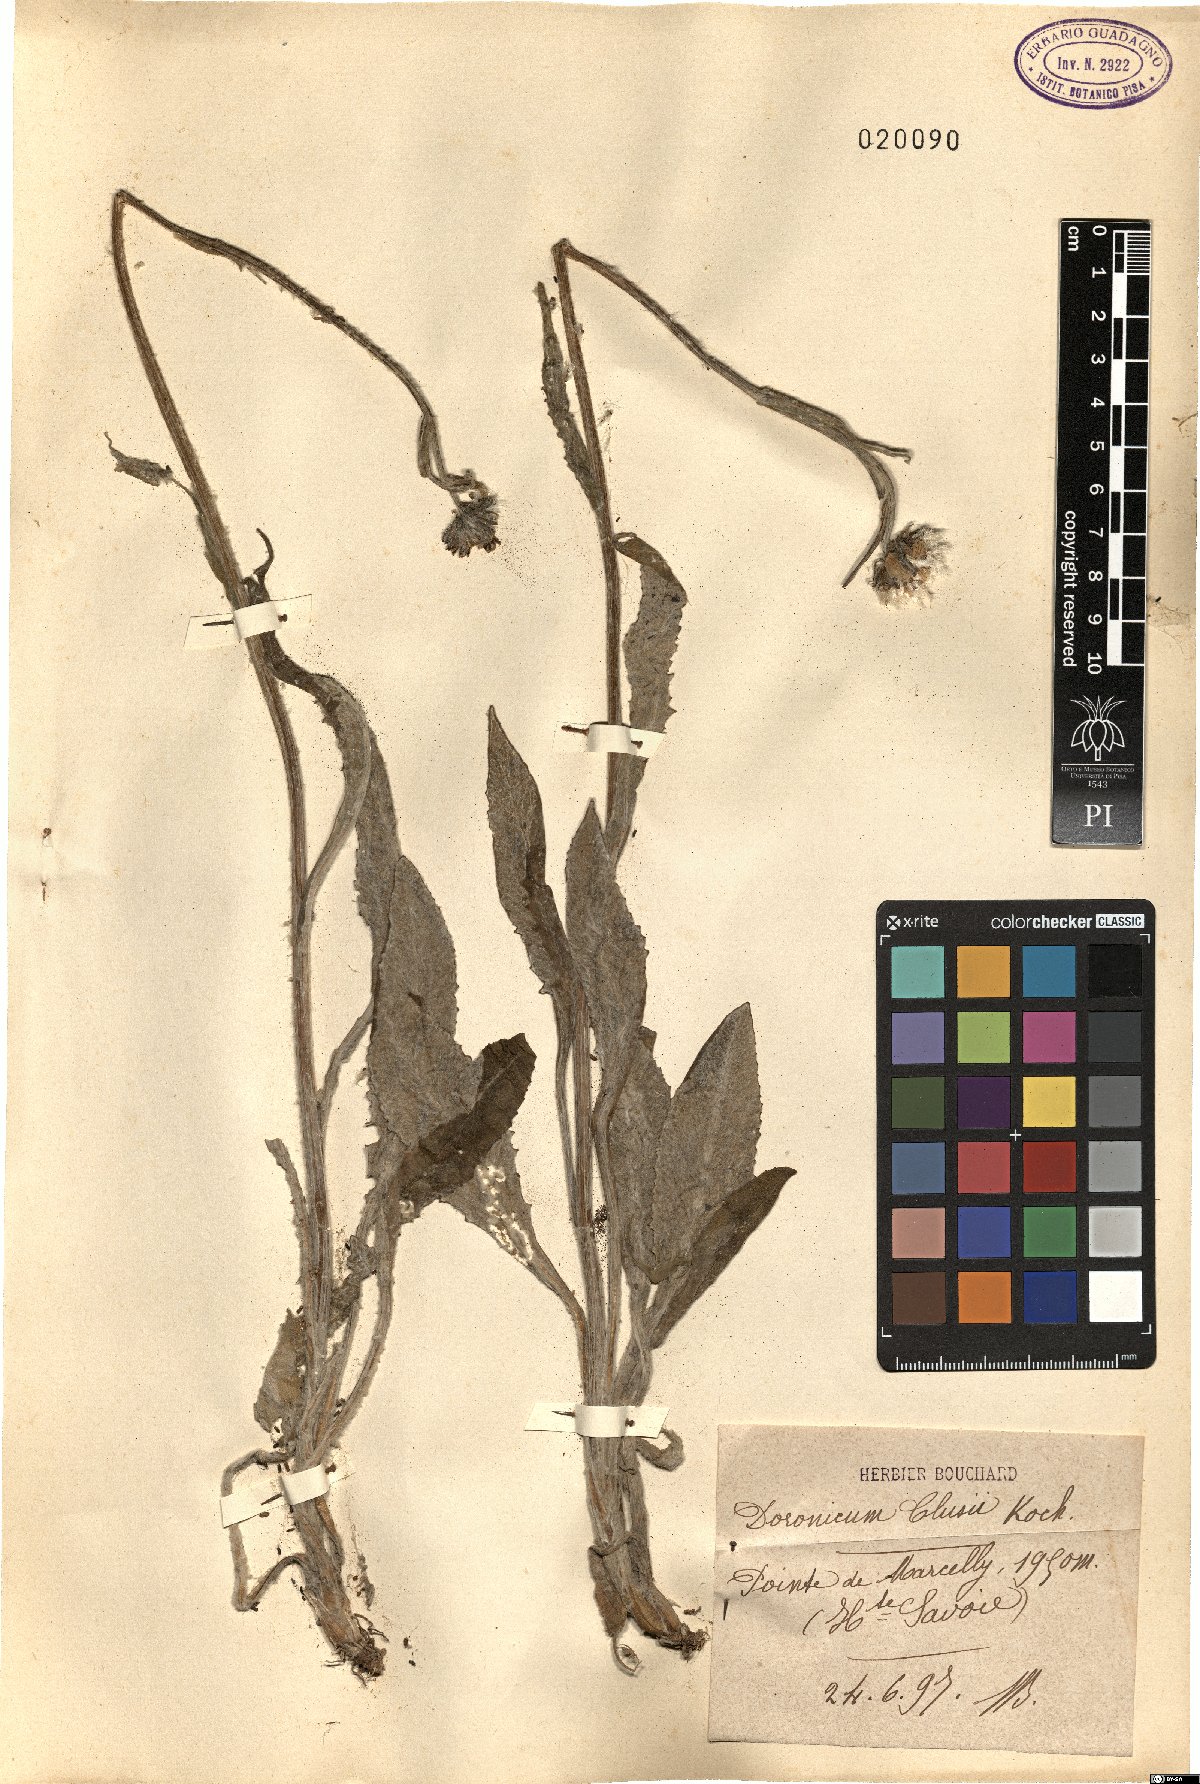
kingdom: Plantae
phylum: Tracheophyta
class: Magnoliopsida
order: Asterales
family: Asteraceae
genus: Doronicum
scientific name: Doronicum clusii
